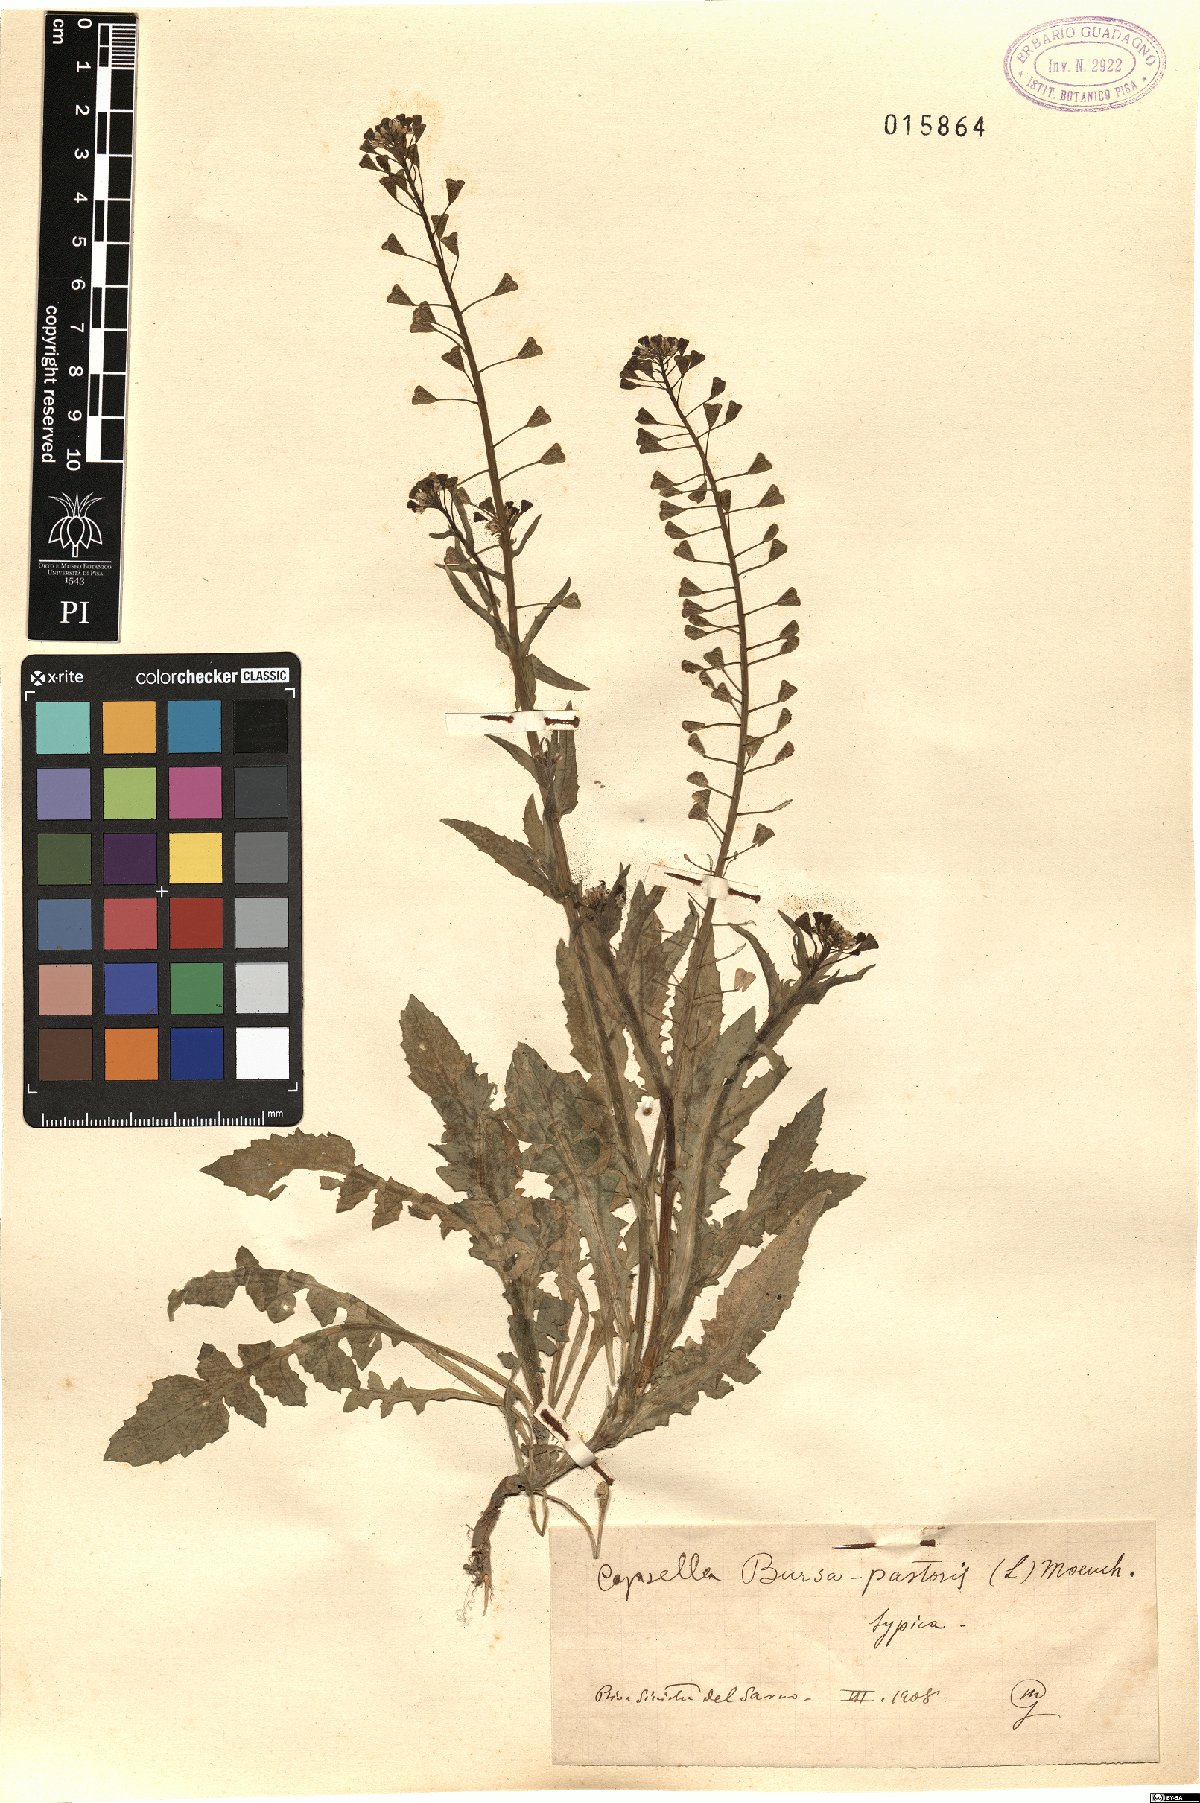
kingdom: Plantae
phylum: Tracheophyta
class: Magnoliopsida
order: Brassicales
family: Brassicaceae
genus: Capsella
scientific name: Capsella bursa-pastoris
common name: Shepherd's purse
